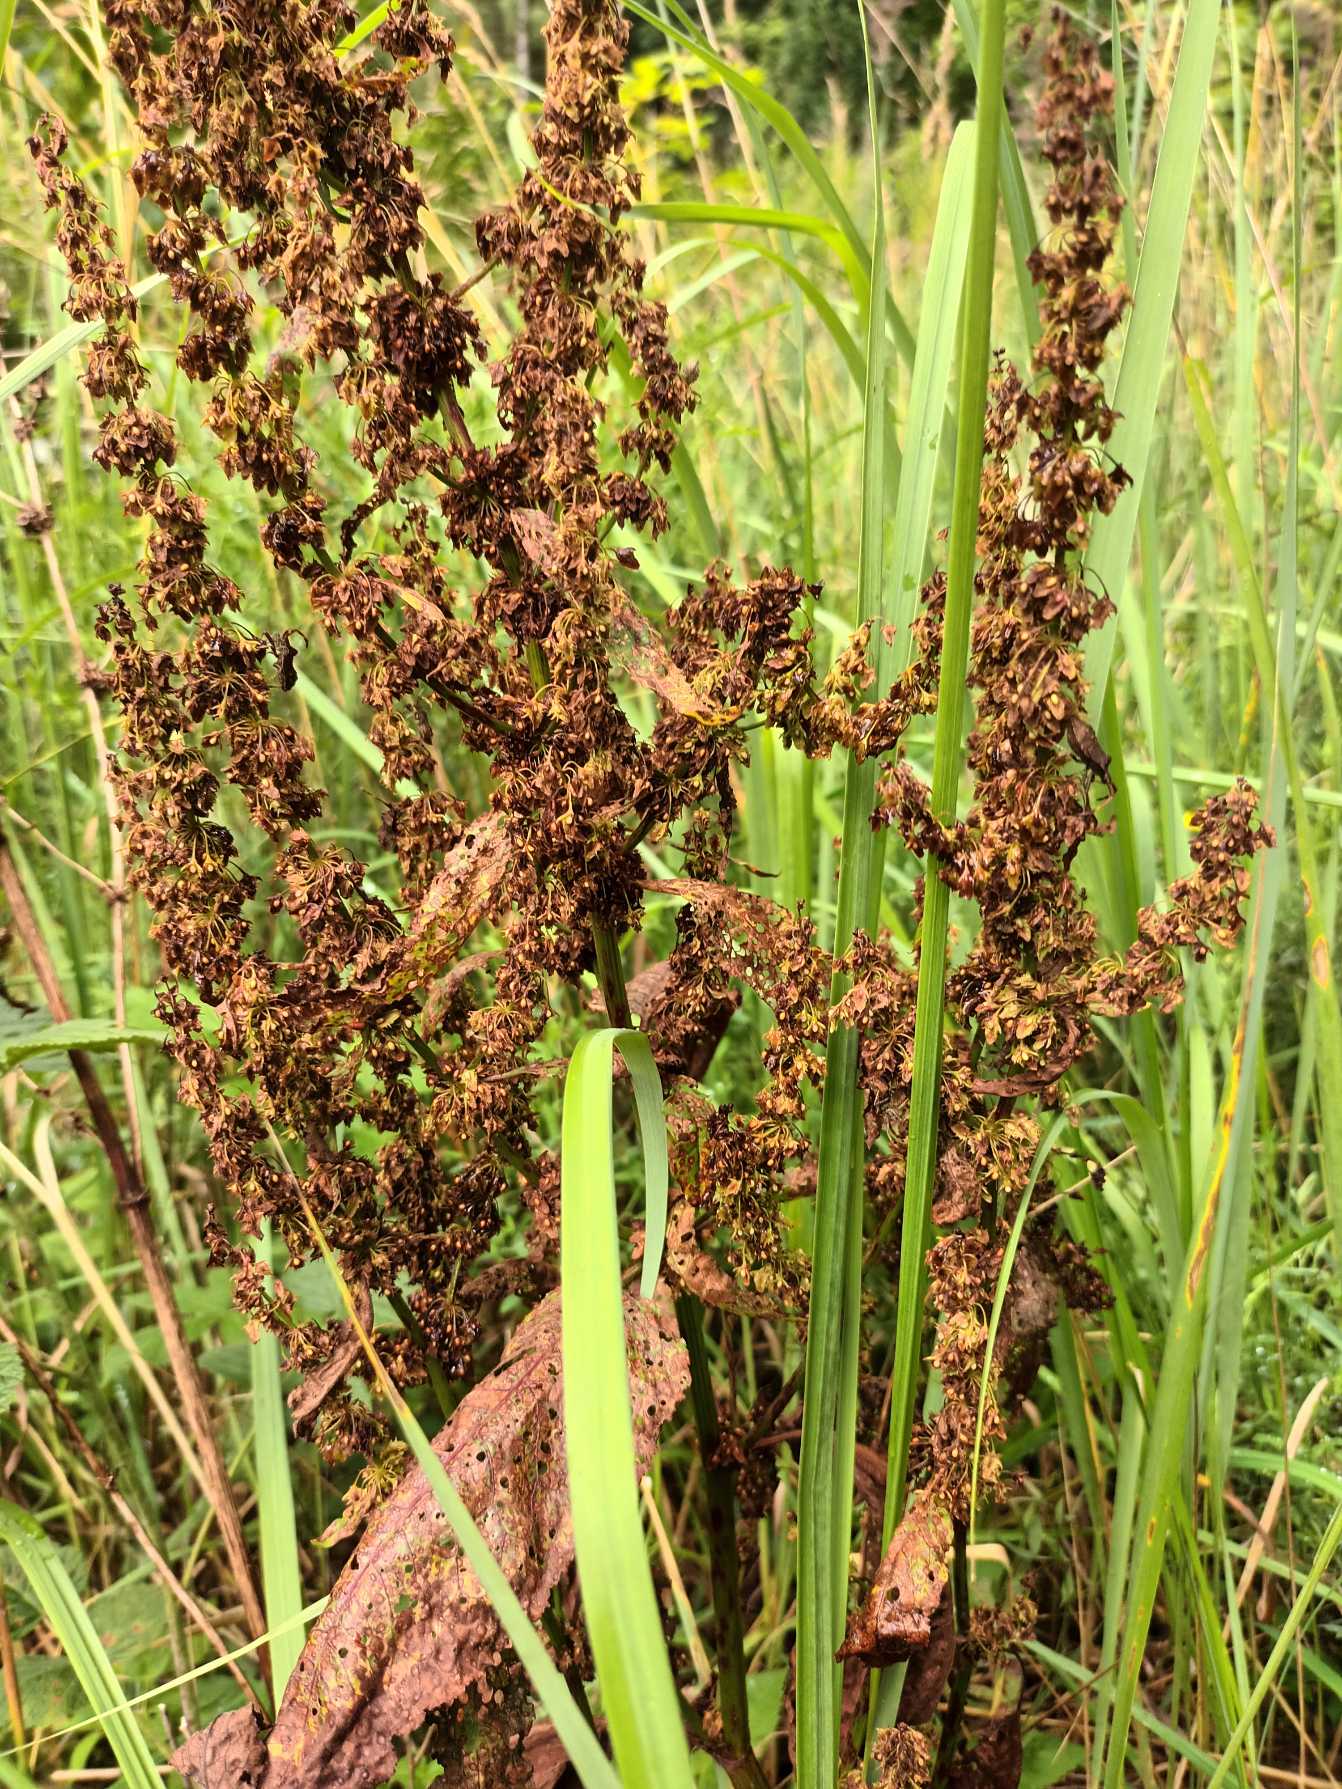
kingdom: Plantae
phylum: Tracheophyta
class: Magnoliopsida
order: Caryophyllales
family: Polygonaceae
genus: Rumex
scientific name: Rumex obtusifolius
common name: Butbladet skræppe
